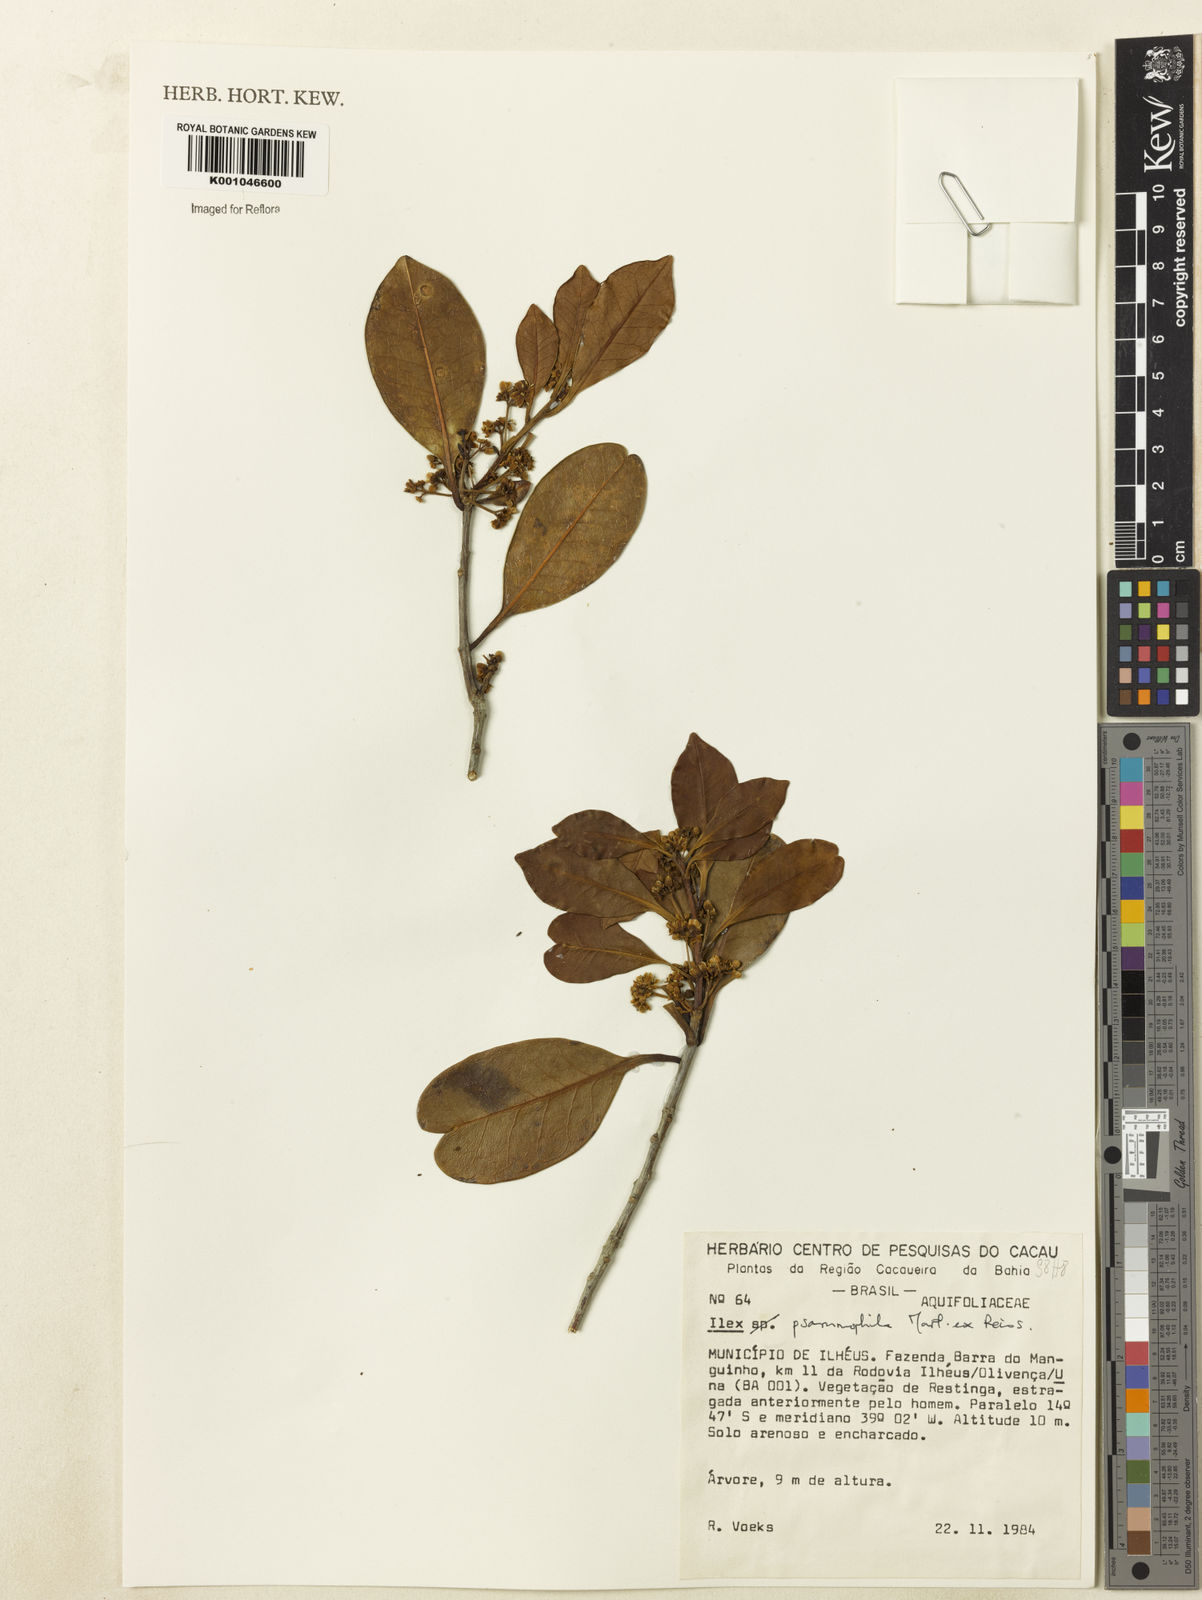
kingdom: Plantae
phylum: Tracheophyta
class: Magnoliopsida
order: Aquifoliales
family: Aquifoliaceae
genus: Ilex
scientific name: Ilex psammophila
